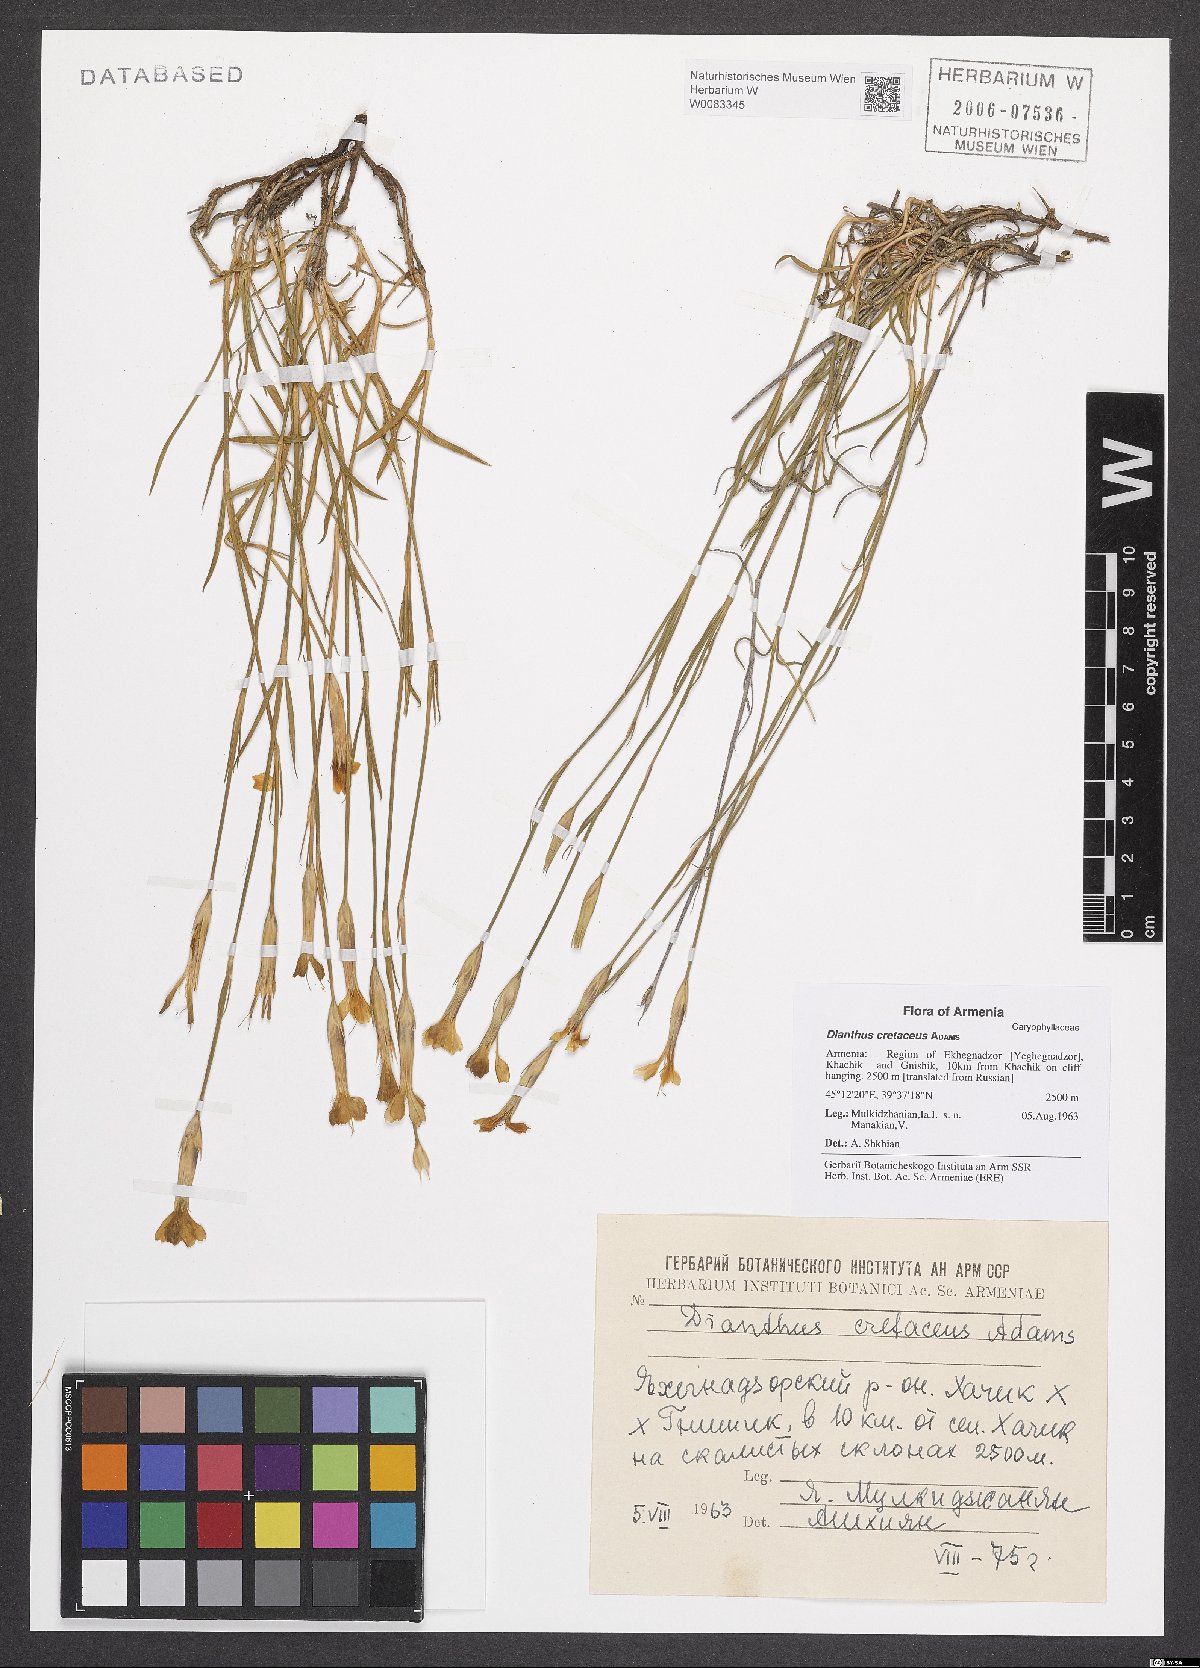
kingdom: Plantae
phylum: Tracheophyta
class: Magnoliopsida
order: Caryophyllales
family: Caryophyllaceae
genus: Dianthus
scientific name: Dianthus cretaceus
